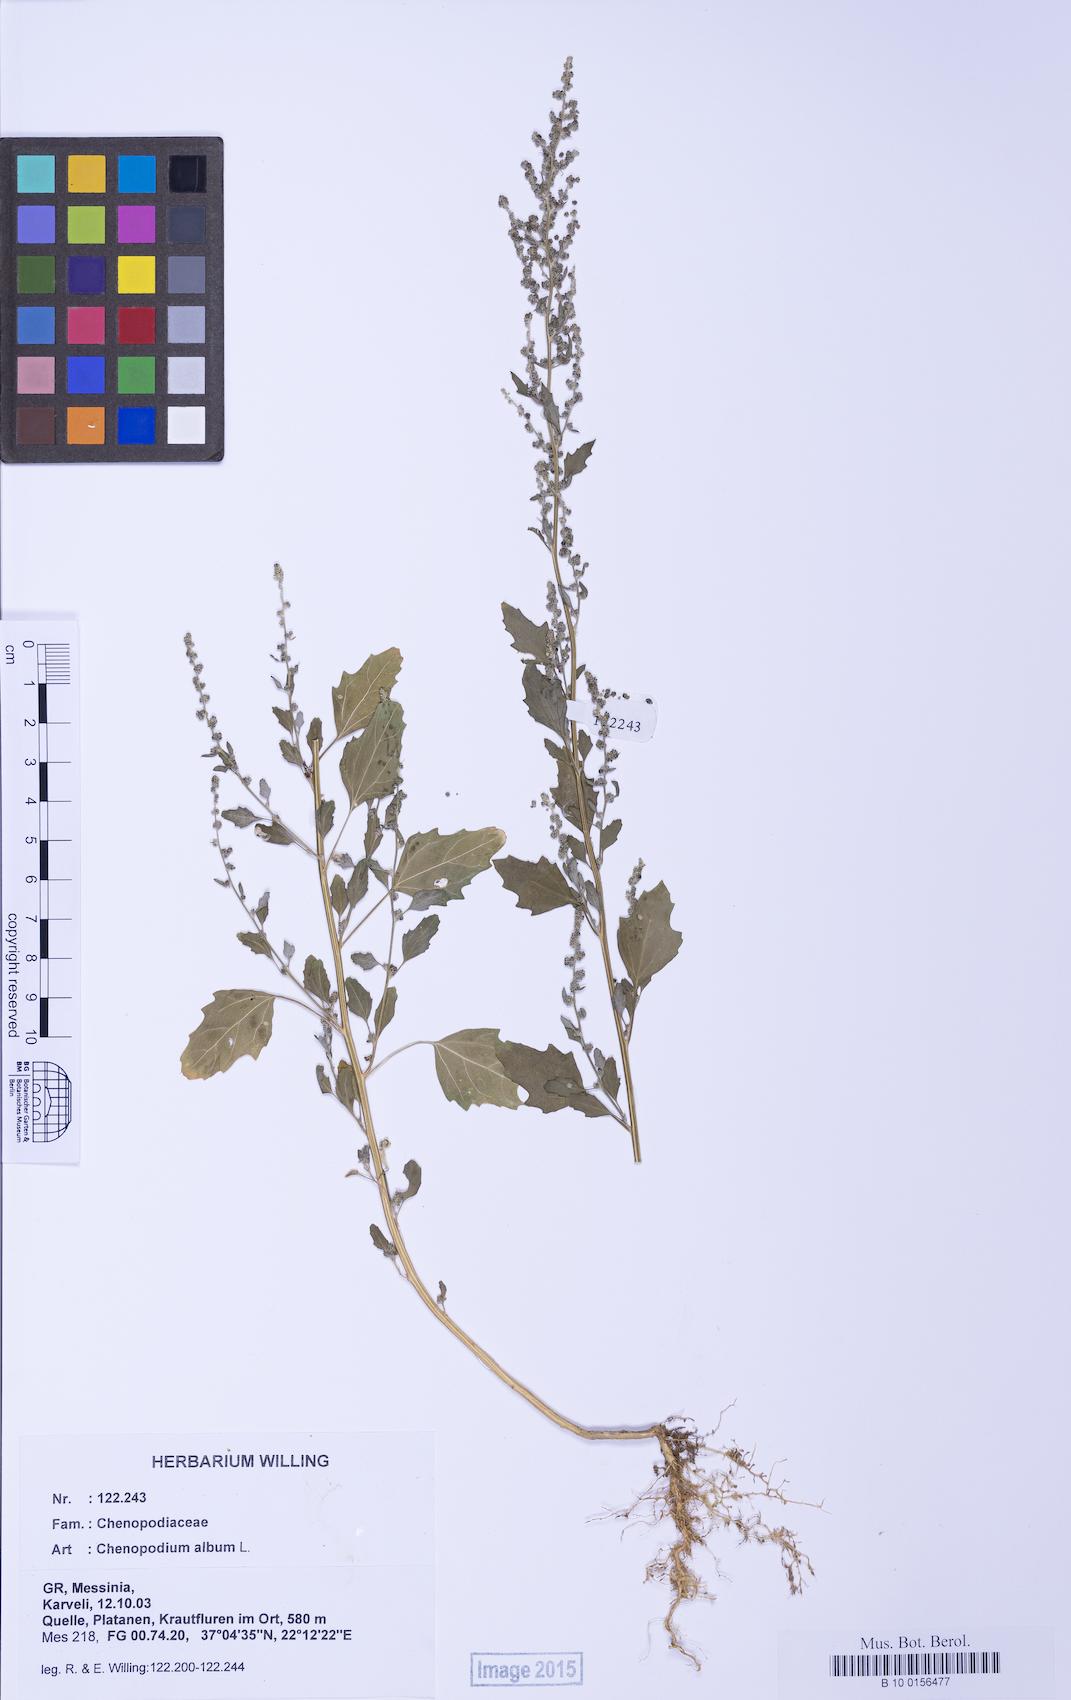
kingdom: Plantae
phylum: Tracheophyta
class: Magnoliopsida
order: Caryophyllales
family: Amaranthaceae
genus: Chenopodium
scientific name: Chenopodium album
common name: Fat-hen
